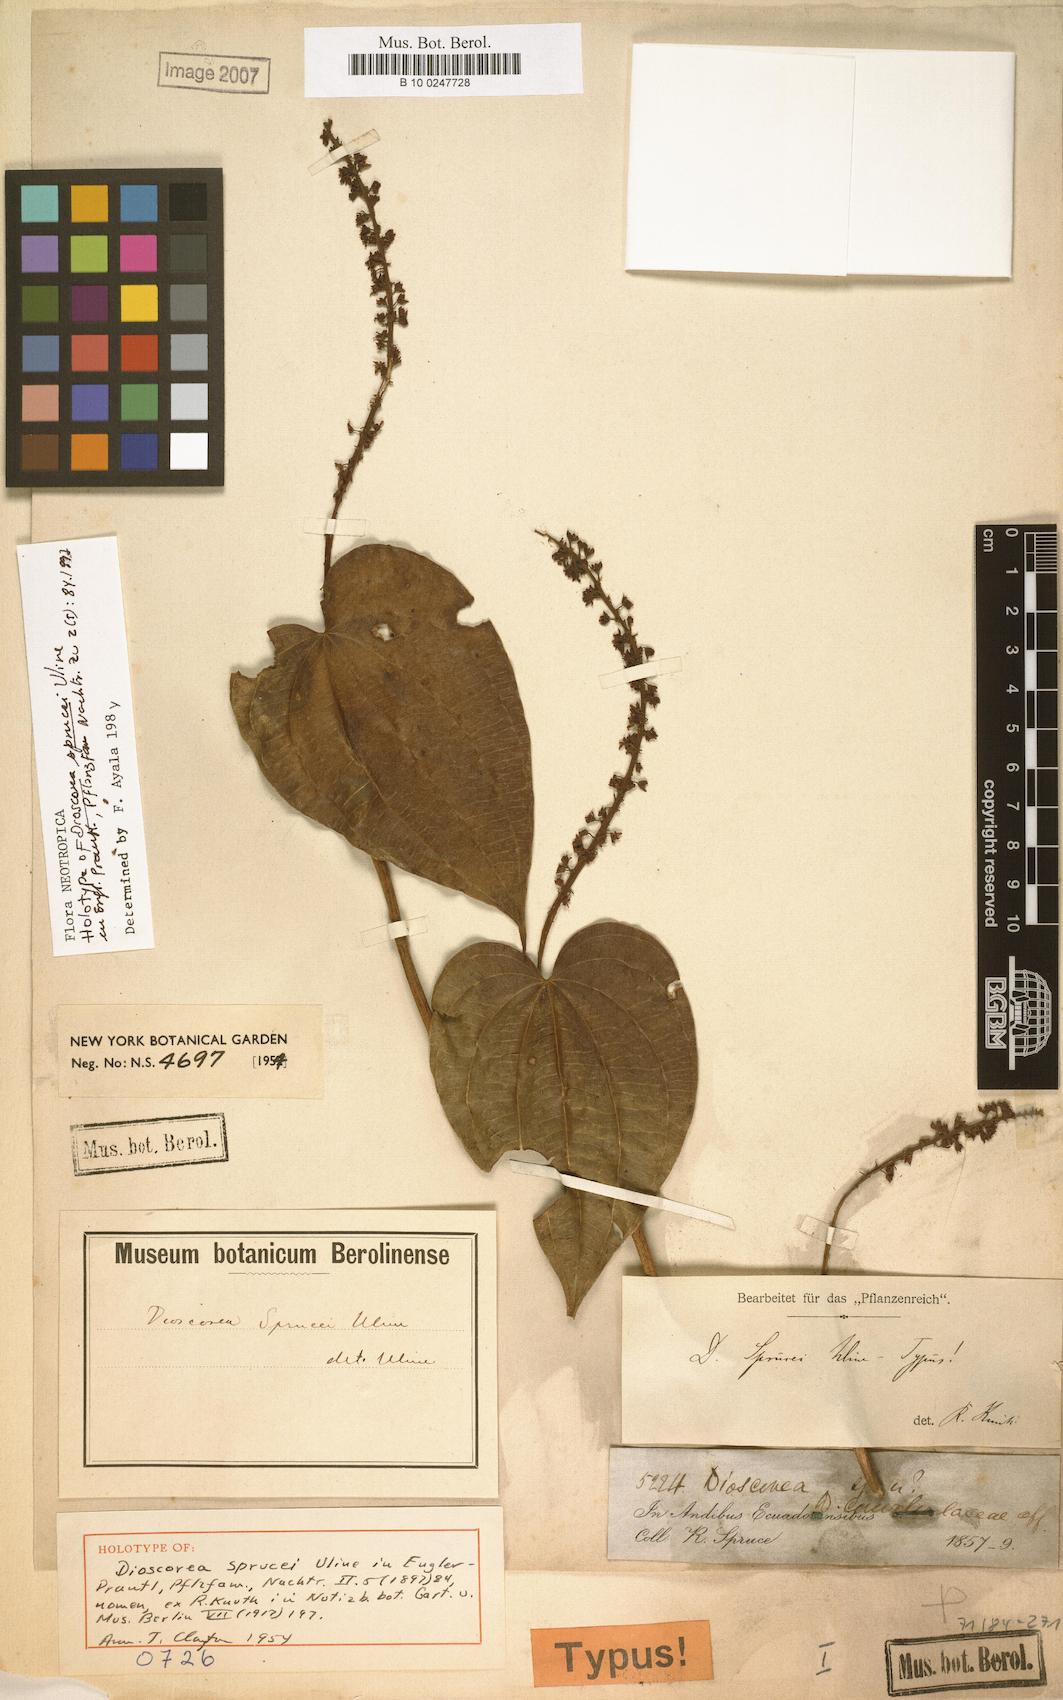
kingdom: Plantae
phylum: Tracheophyta
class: Liliopsida
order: Dioscoreales
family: Dioscoreaceae
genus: Dioscorea
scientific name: Dioscorea sprucei
